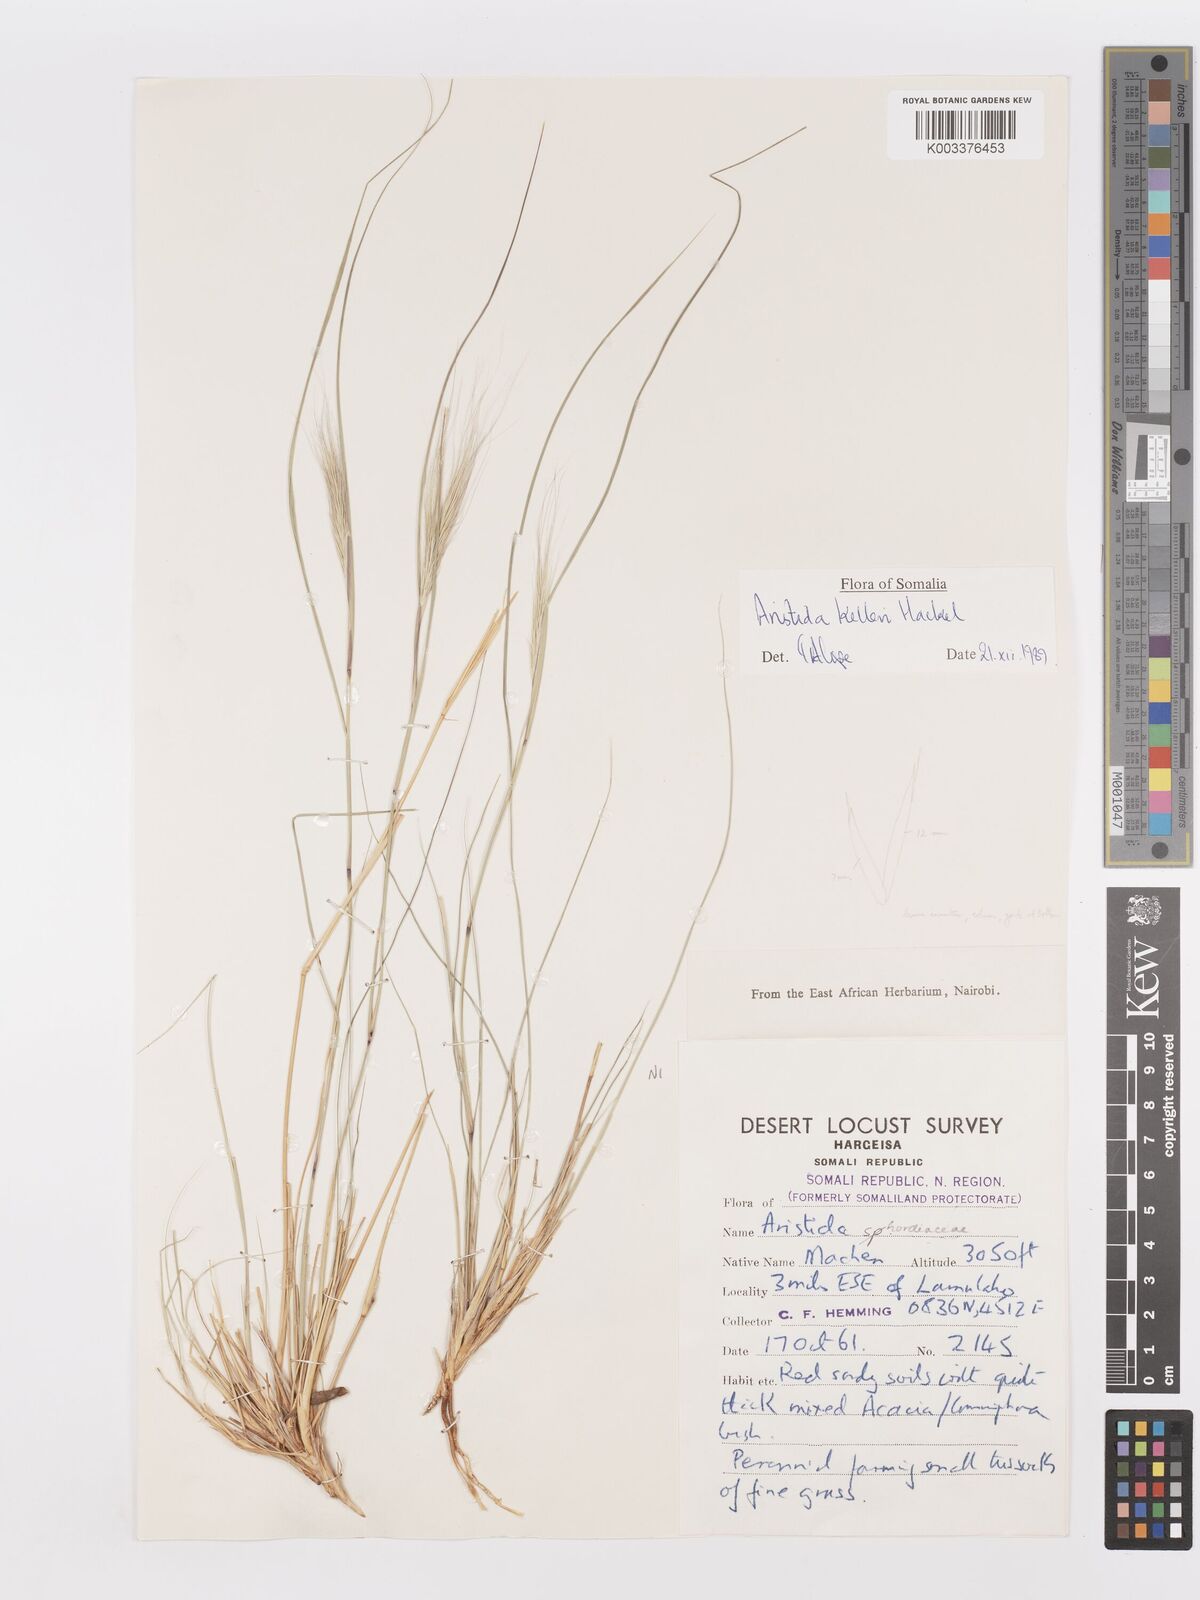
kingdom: Plantae
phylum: Tracheophyta
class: Liliopsida
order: Poales
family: Poaceae
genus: Aristida
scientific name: Aristida kelleri
